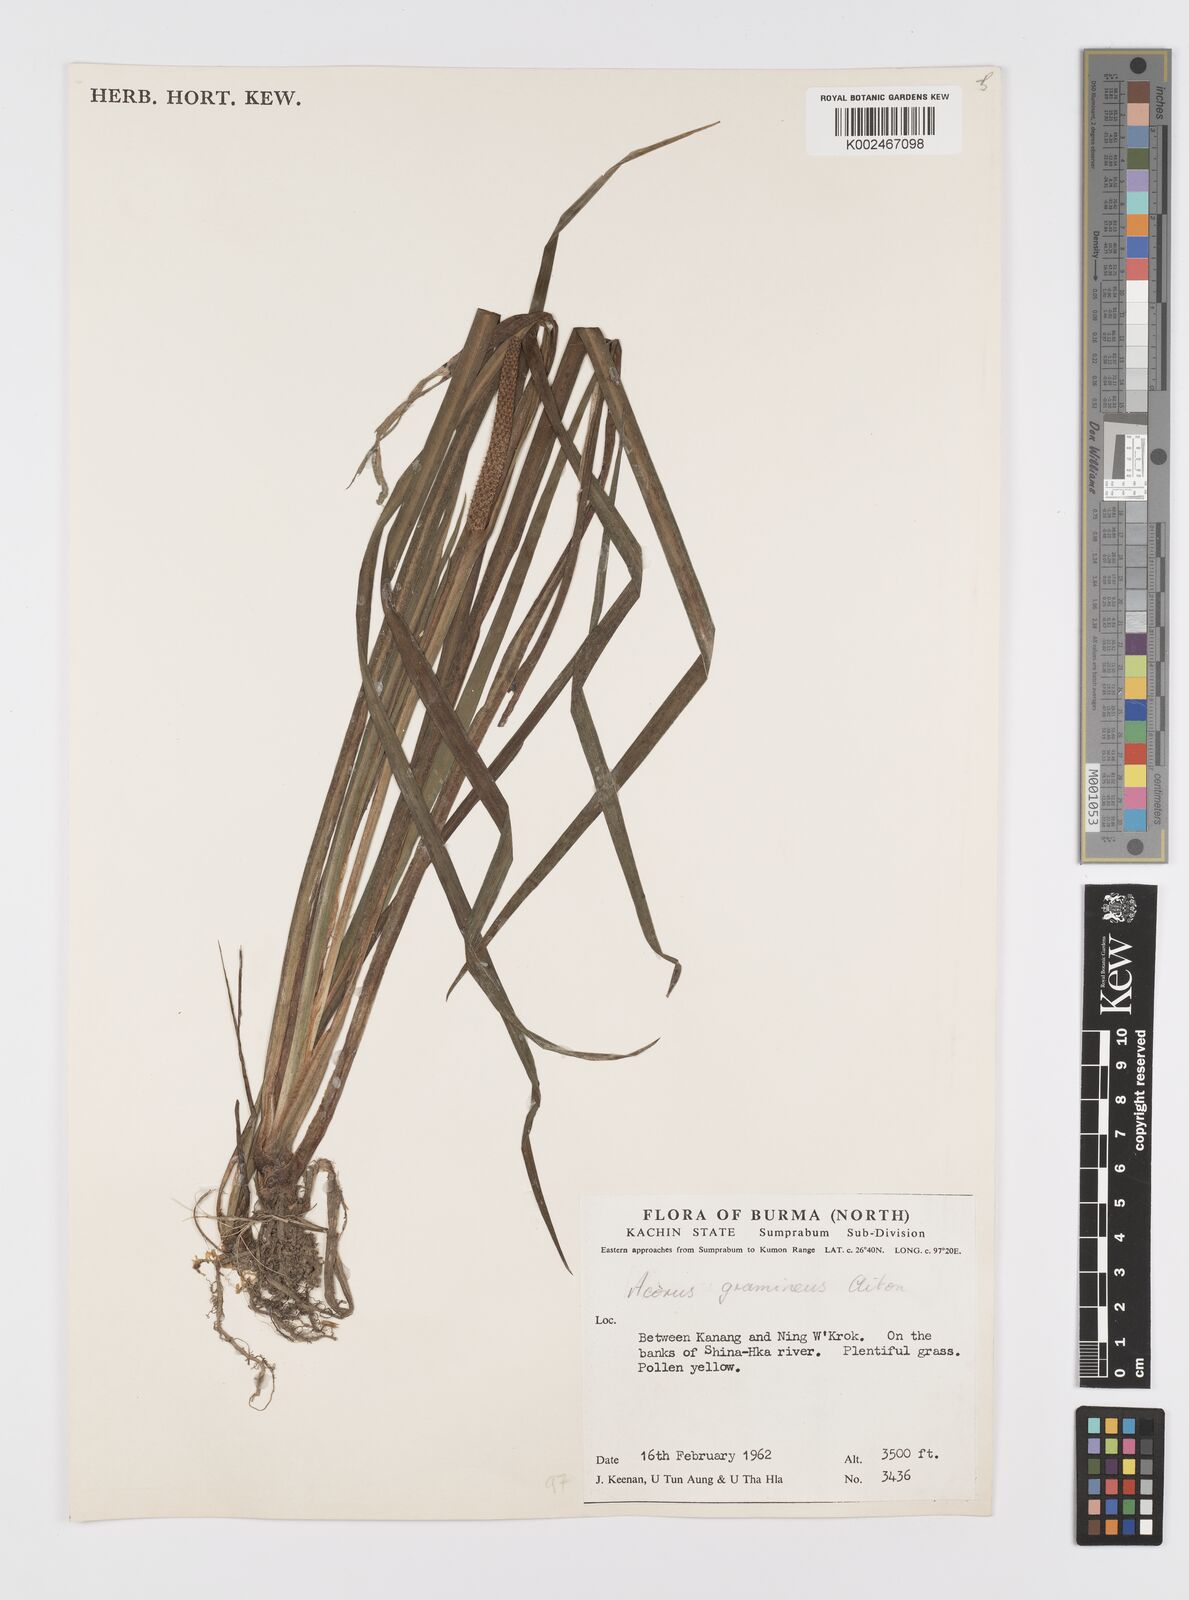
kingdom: Plantae
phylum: Tracheophyta
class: Liliopsida
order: Acorales
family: Acoraceae
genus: Acorus
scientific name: Acorus gramineus
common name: Slender sweet-flag
